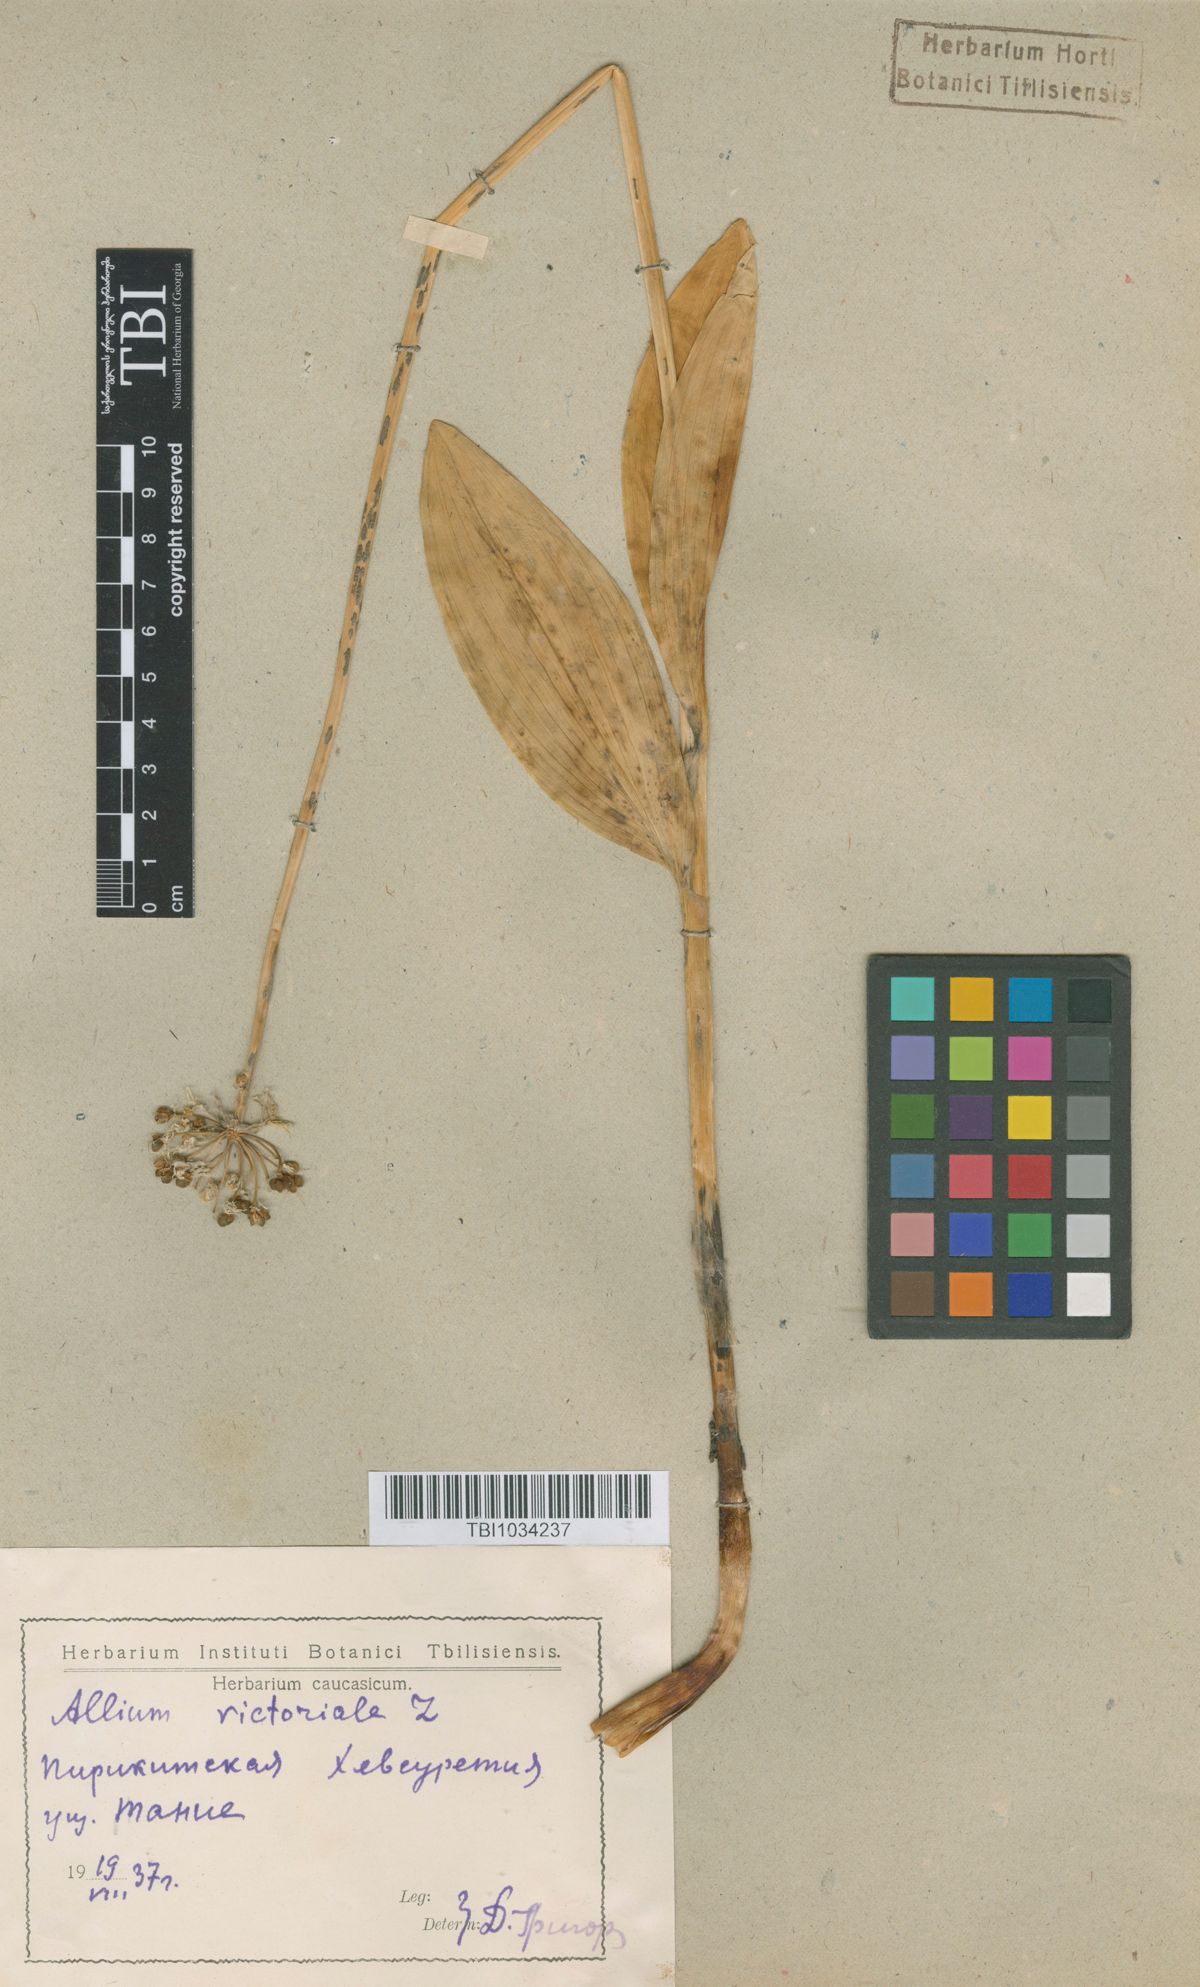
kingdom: Plantae
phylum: Tracheophyta
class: Liliopsida
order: Asparagales
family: Amaryllidaceae
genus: Allium
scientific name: Allium victorialis
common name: Alpine leek
